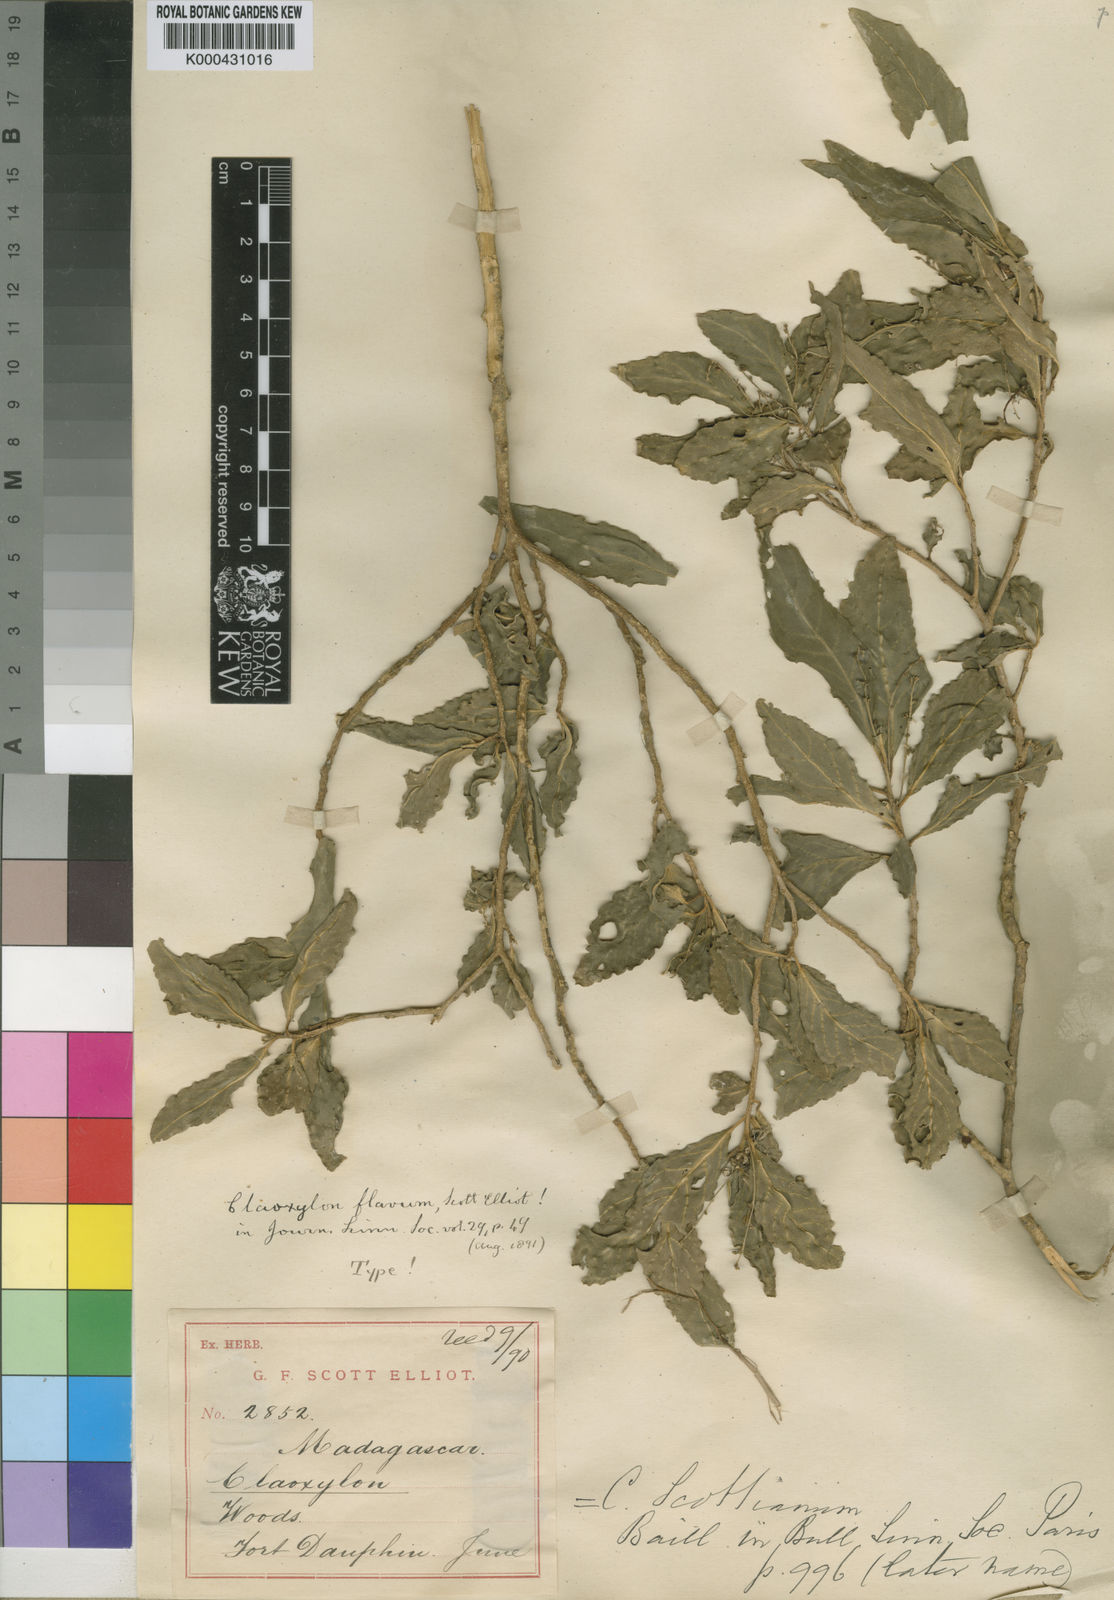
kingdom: Plantae
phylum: Tracheophyta
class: Magnoliopsida
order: Malpighiales
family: Euphorbiaceae
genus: Claoxylon
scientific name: Claoxylon flavum
